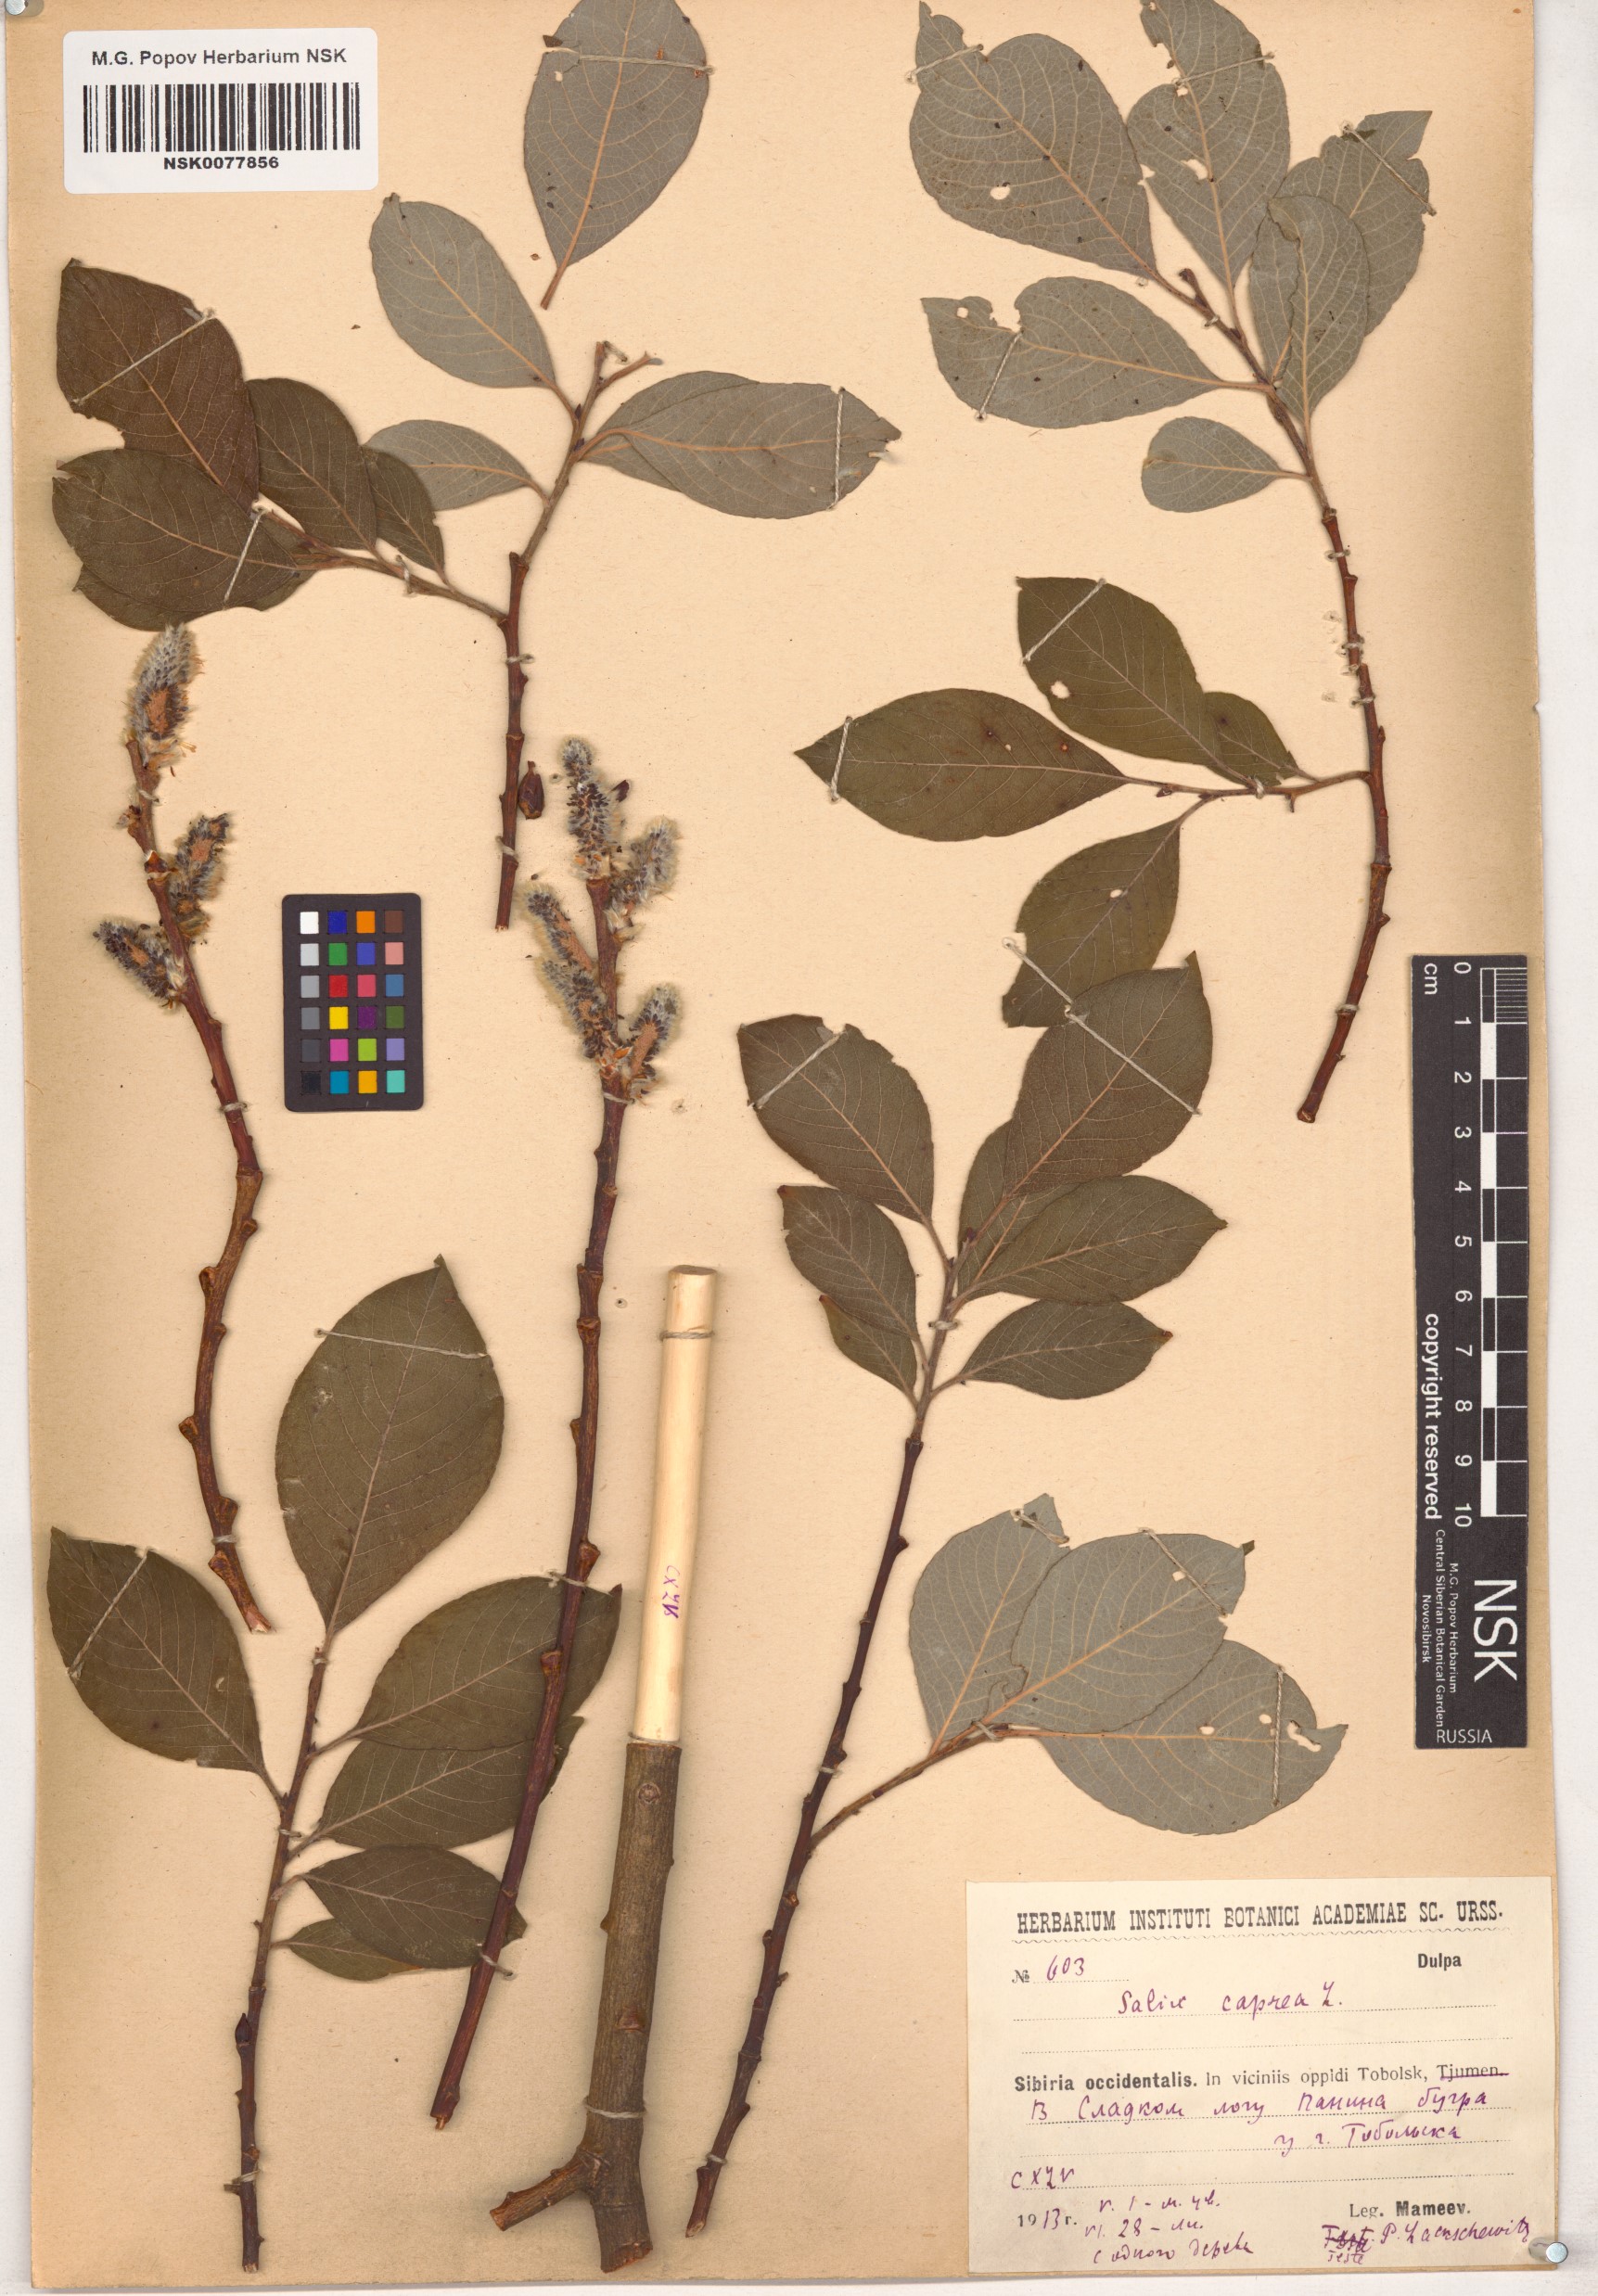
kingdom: Plantae
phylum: Tracheophyta
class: Magnoliopsida
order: Malpighiales
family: Salicaceae
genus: Salix
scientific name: Salix caprea
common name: Goat willow
